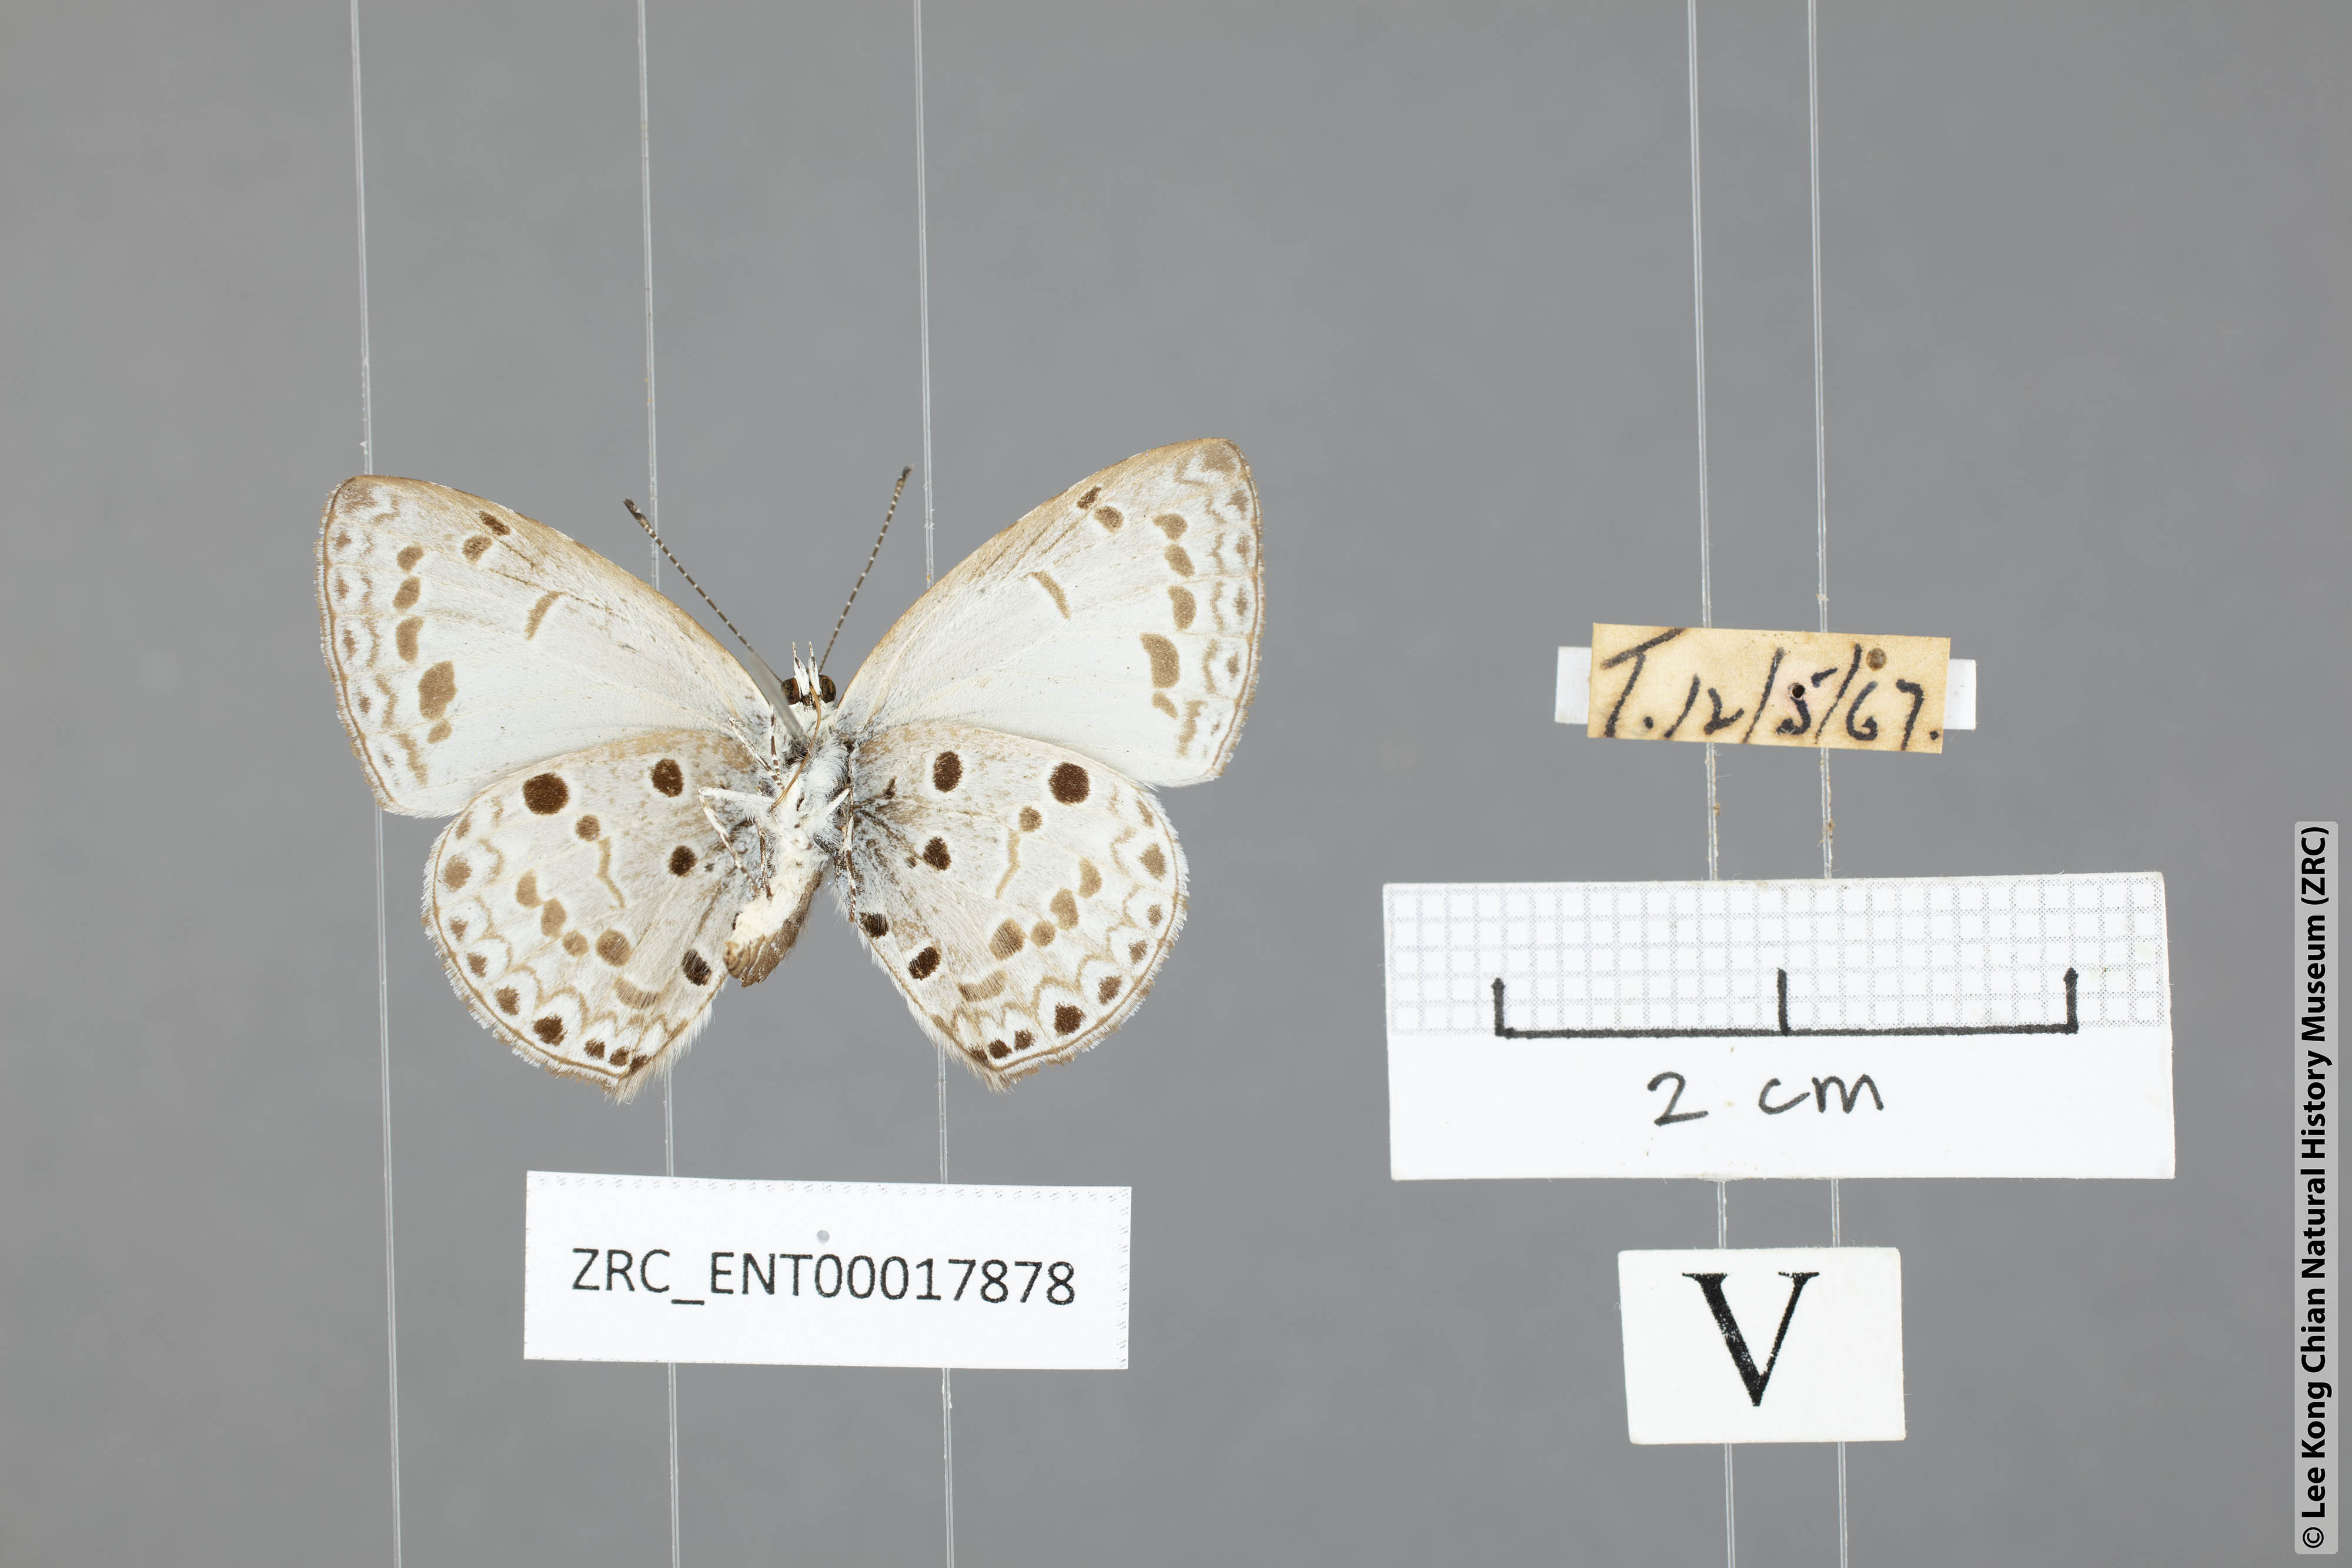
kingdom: Animalia
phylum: Arthropoda
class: Insecta
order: Lepidoptera
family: Lycaenidae
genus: Acytolepis
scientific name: Acytolepis puspa
